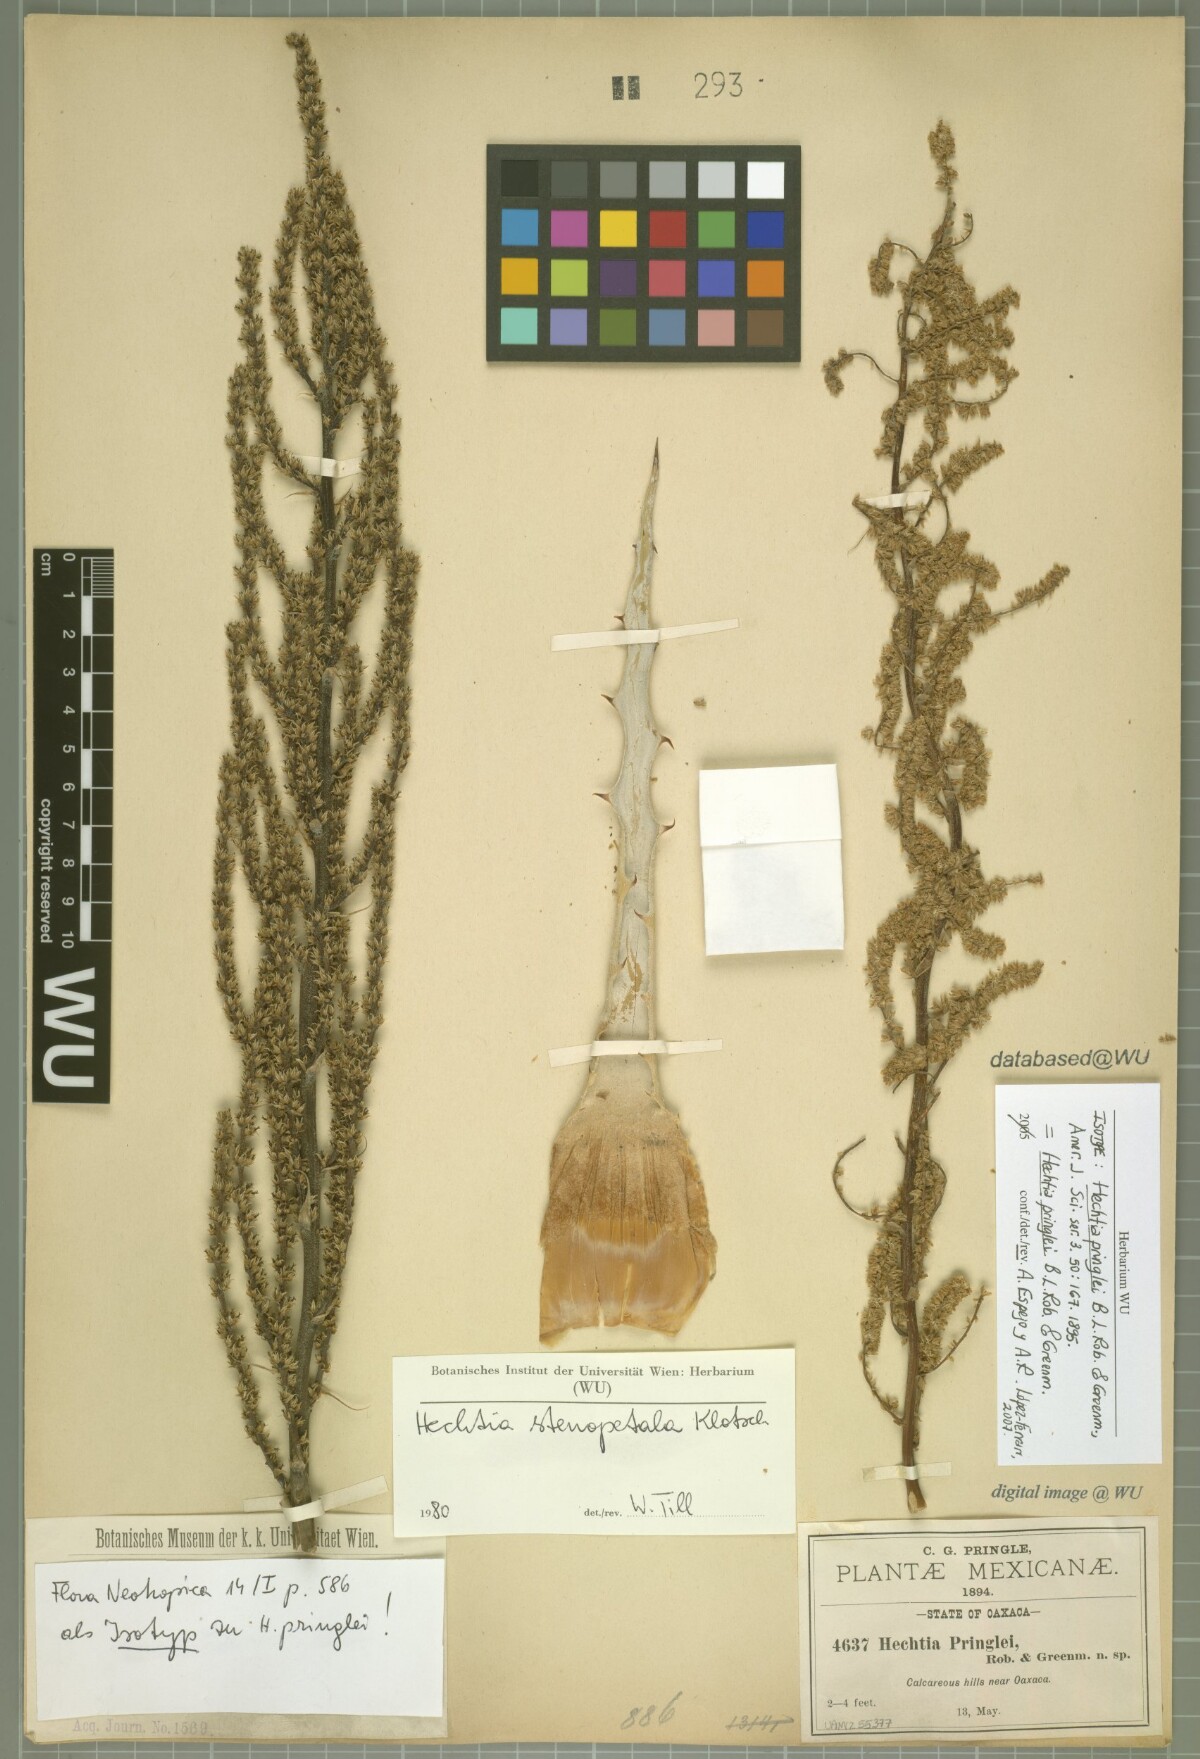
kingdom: Plantae
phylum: Tracheophyta
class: Liliopsida
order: Poales
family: Bromeliaceae
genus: Hechtia
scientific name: Hechtia pringlei
